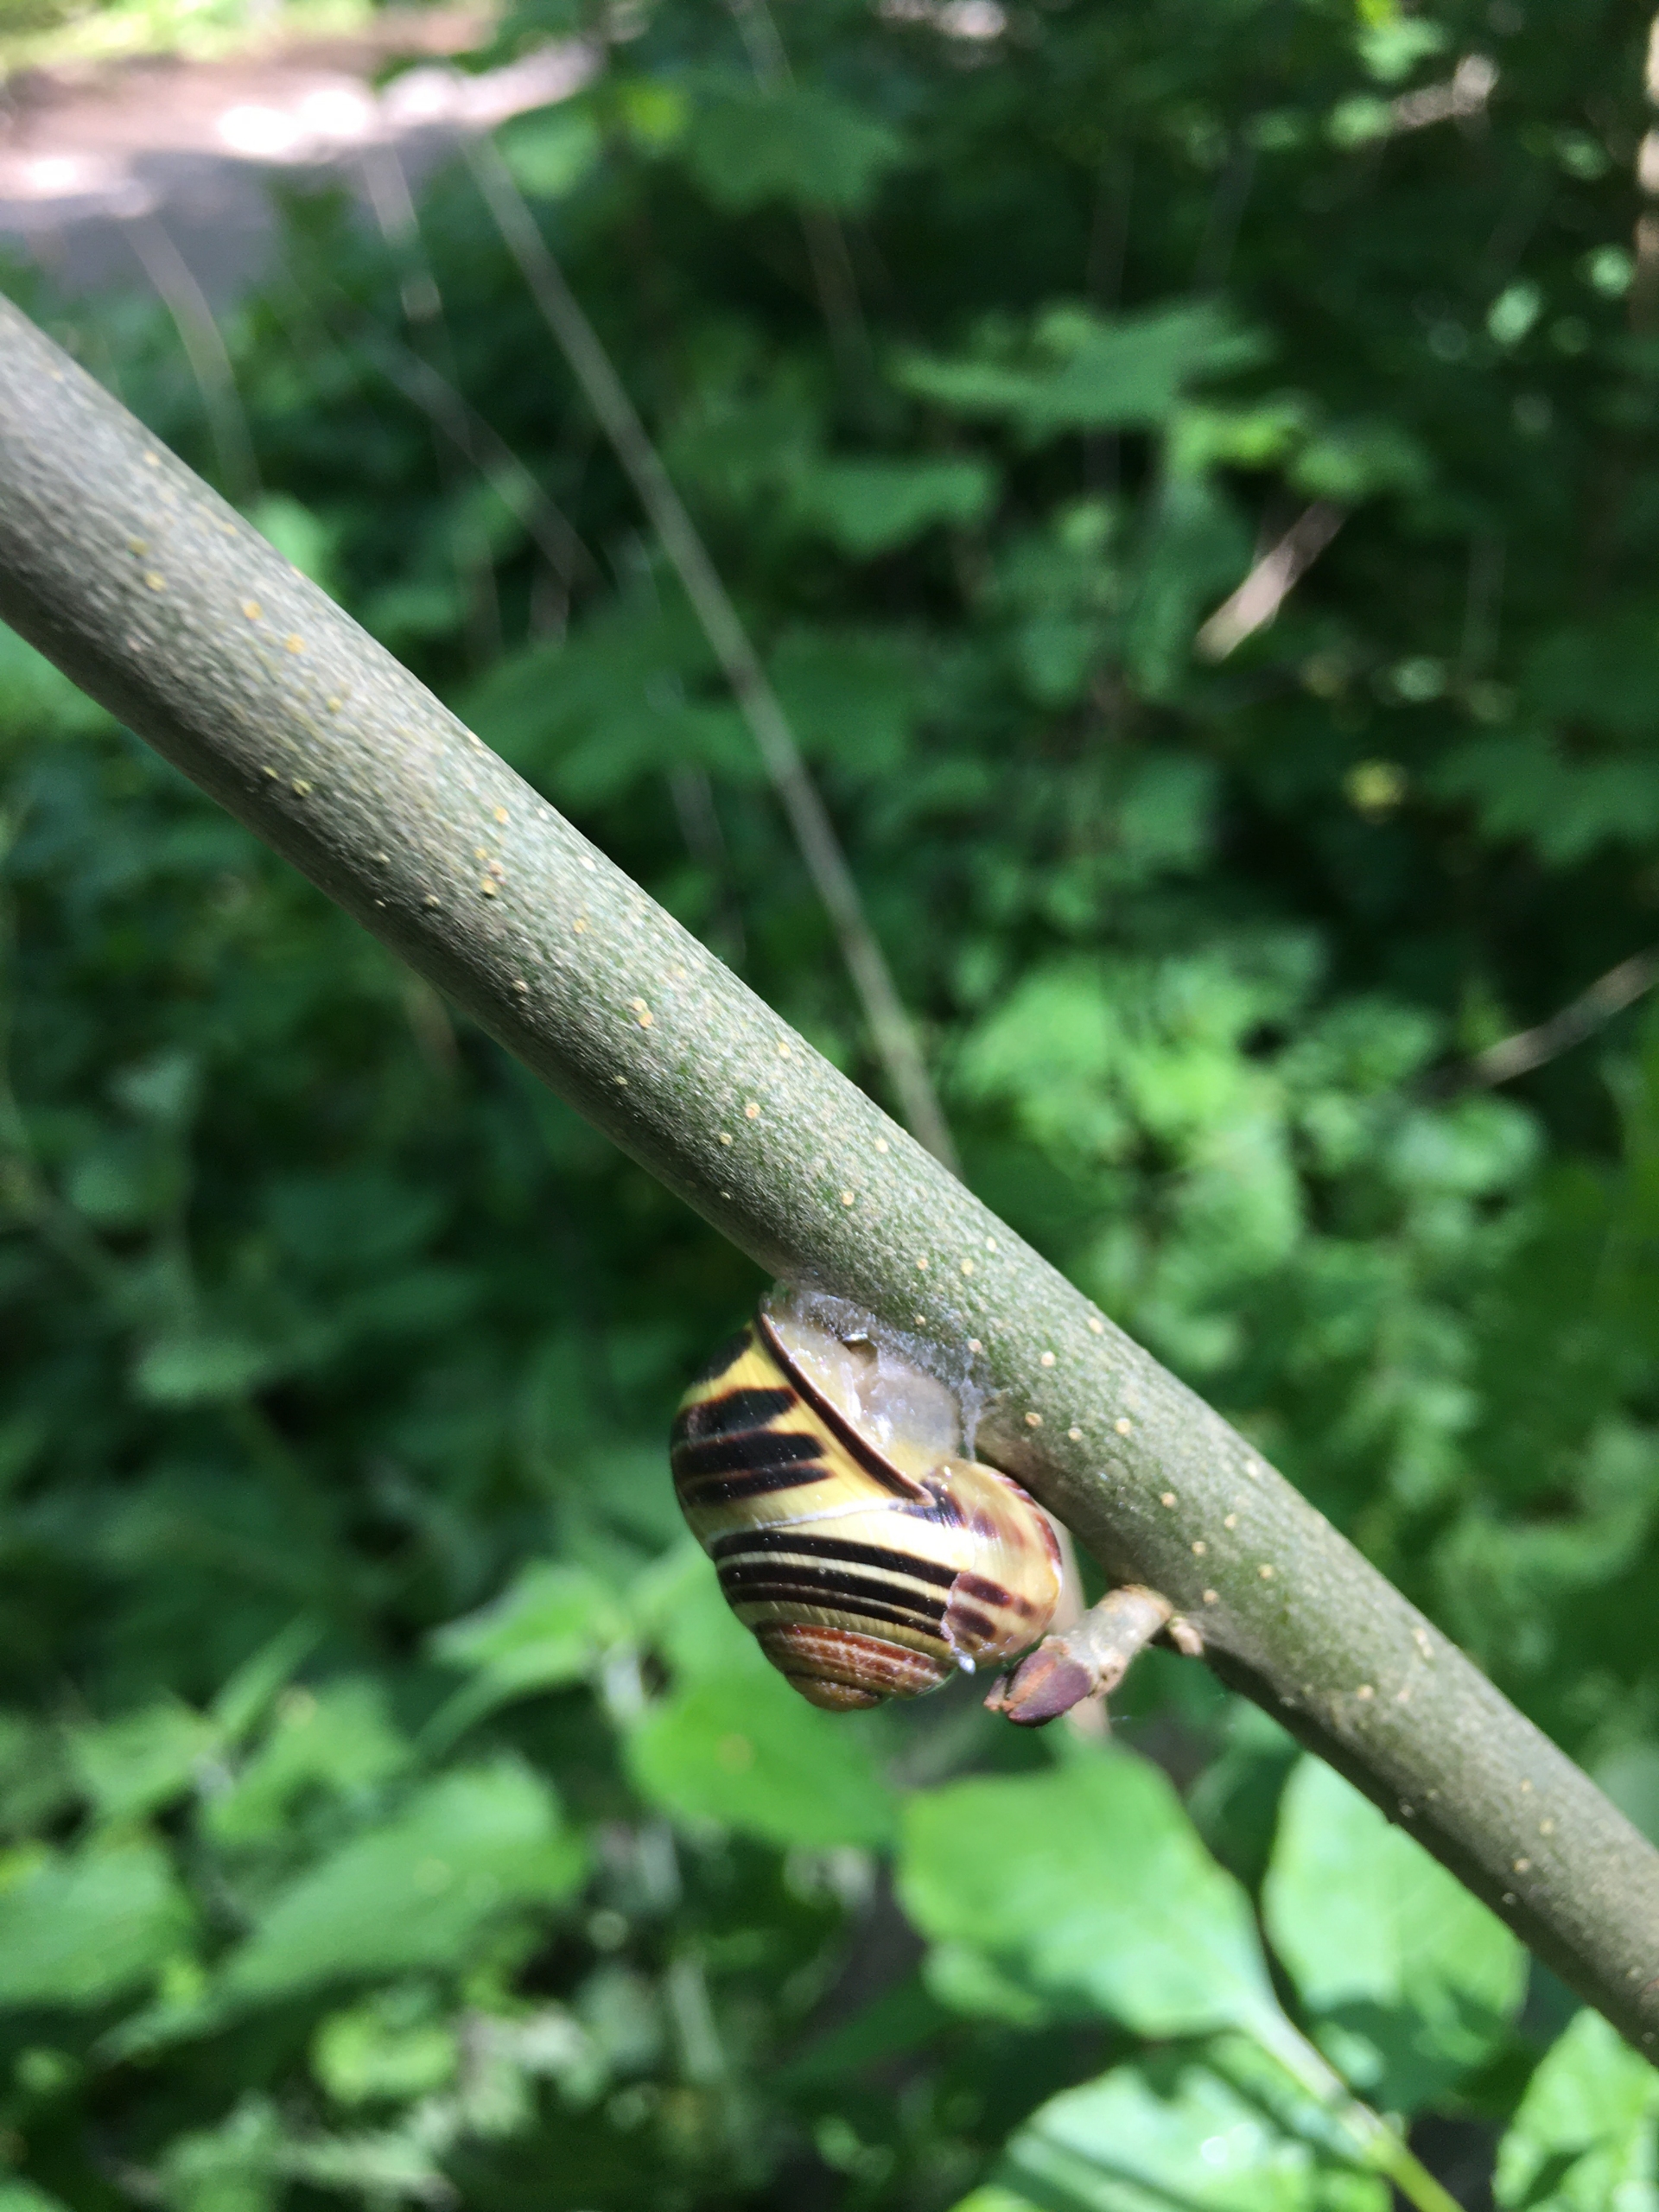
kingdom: Animalia
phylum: Mollusca
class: Gastropoda
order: Stylommatophora
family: Helicidae
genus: Cepaea
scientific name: Cepaea nemoralis
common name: Lundsnegl
